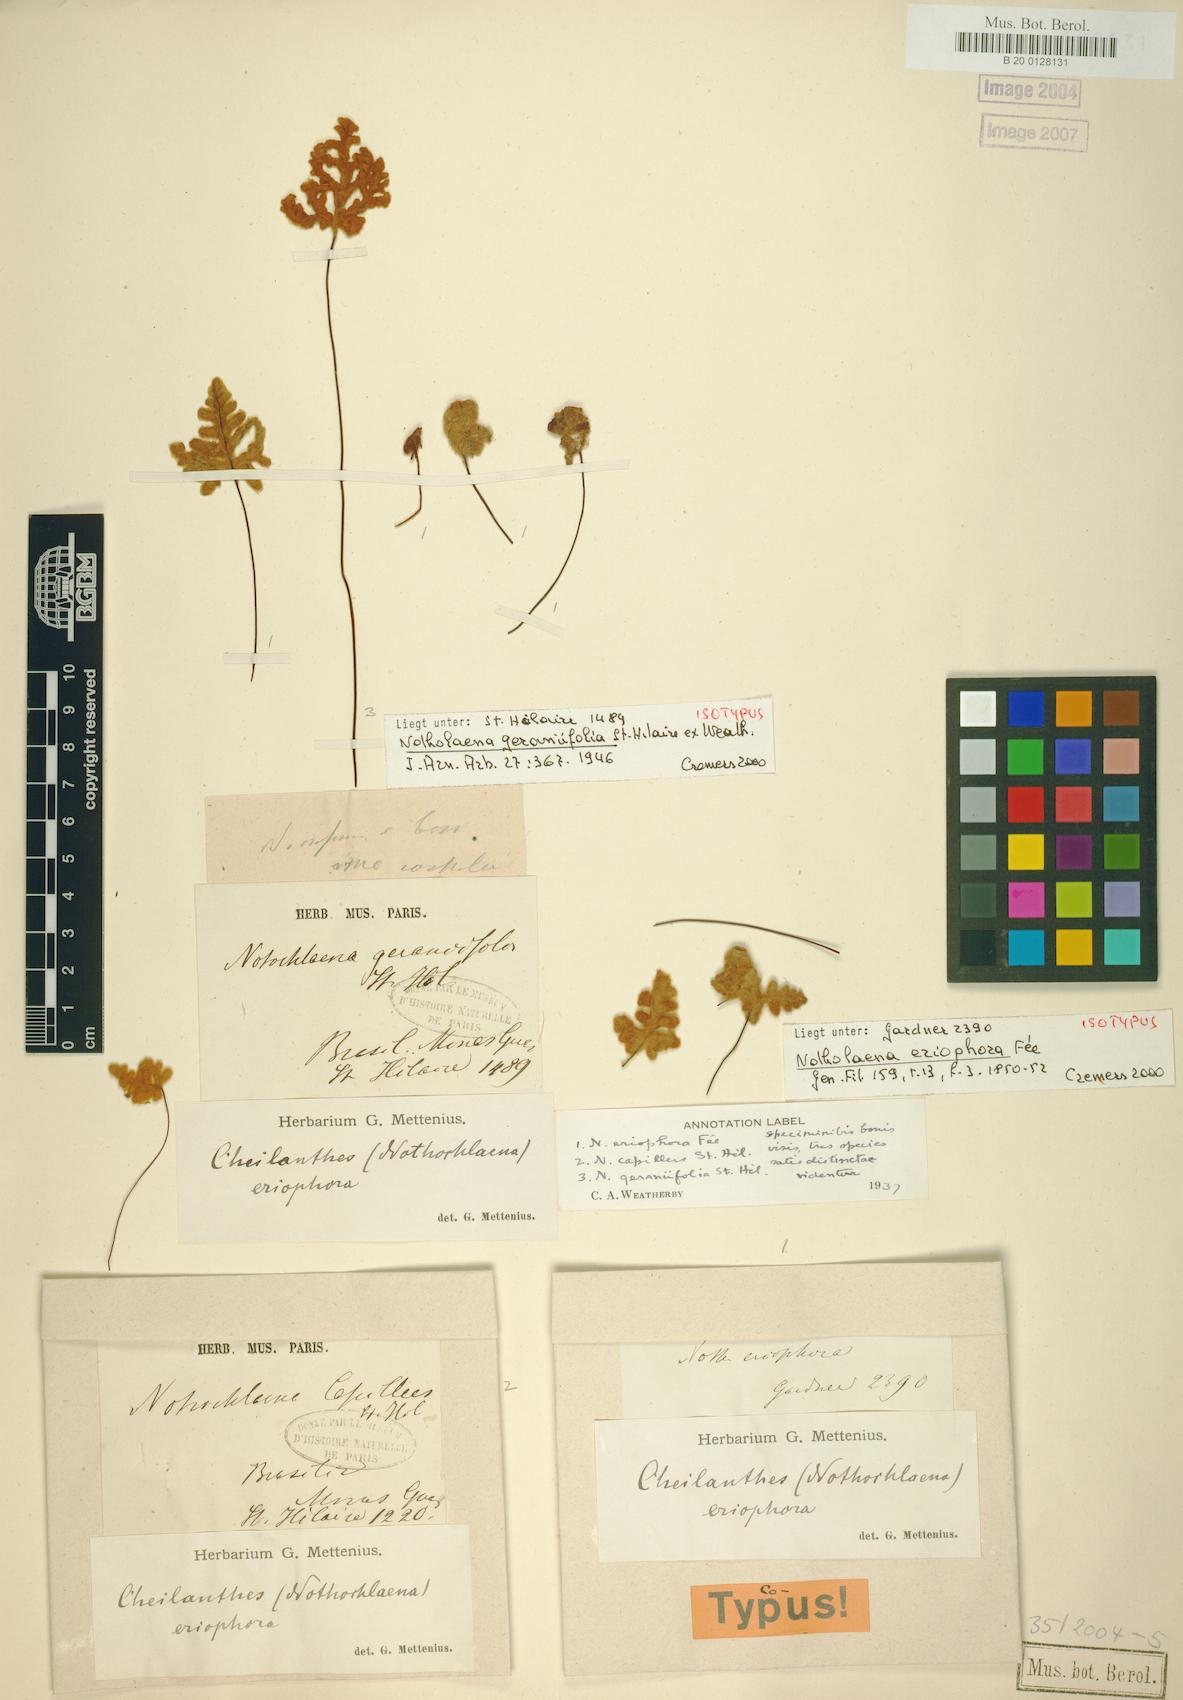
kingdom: Plantae
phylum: Tracheophyta
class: Polypodiopsida
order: Polypodiales
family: Pteridaceae
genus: Mineirella
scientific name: Mineirella eriophora
